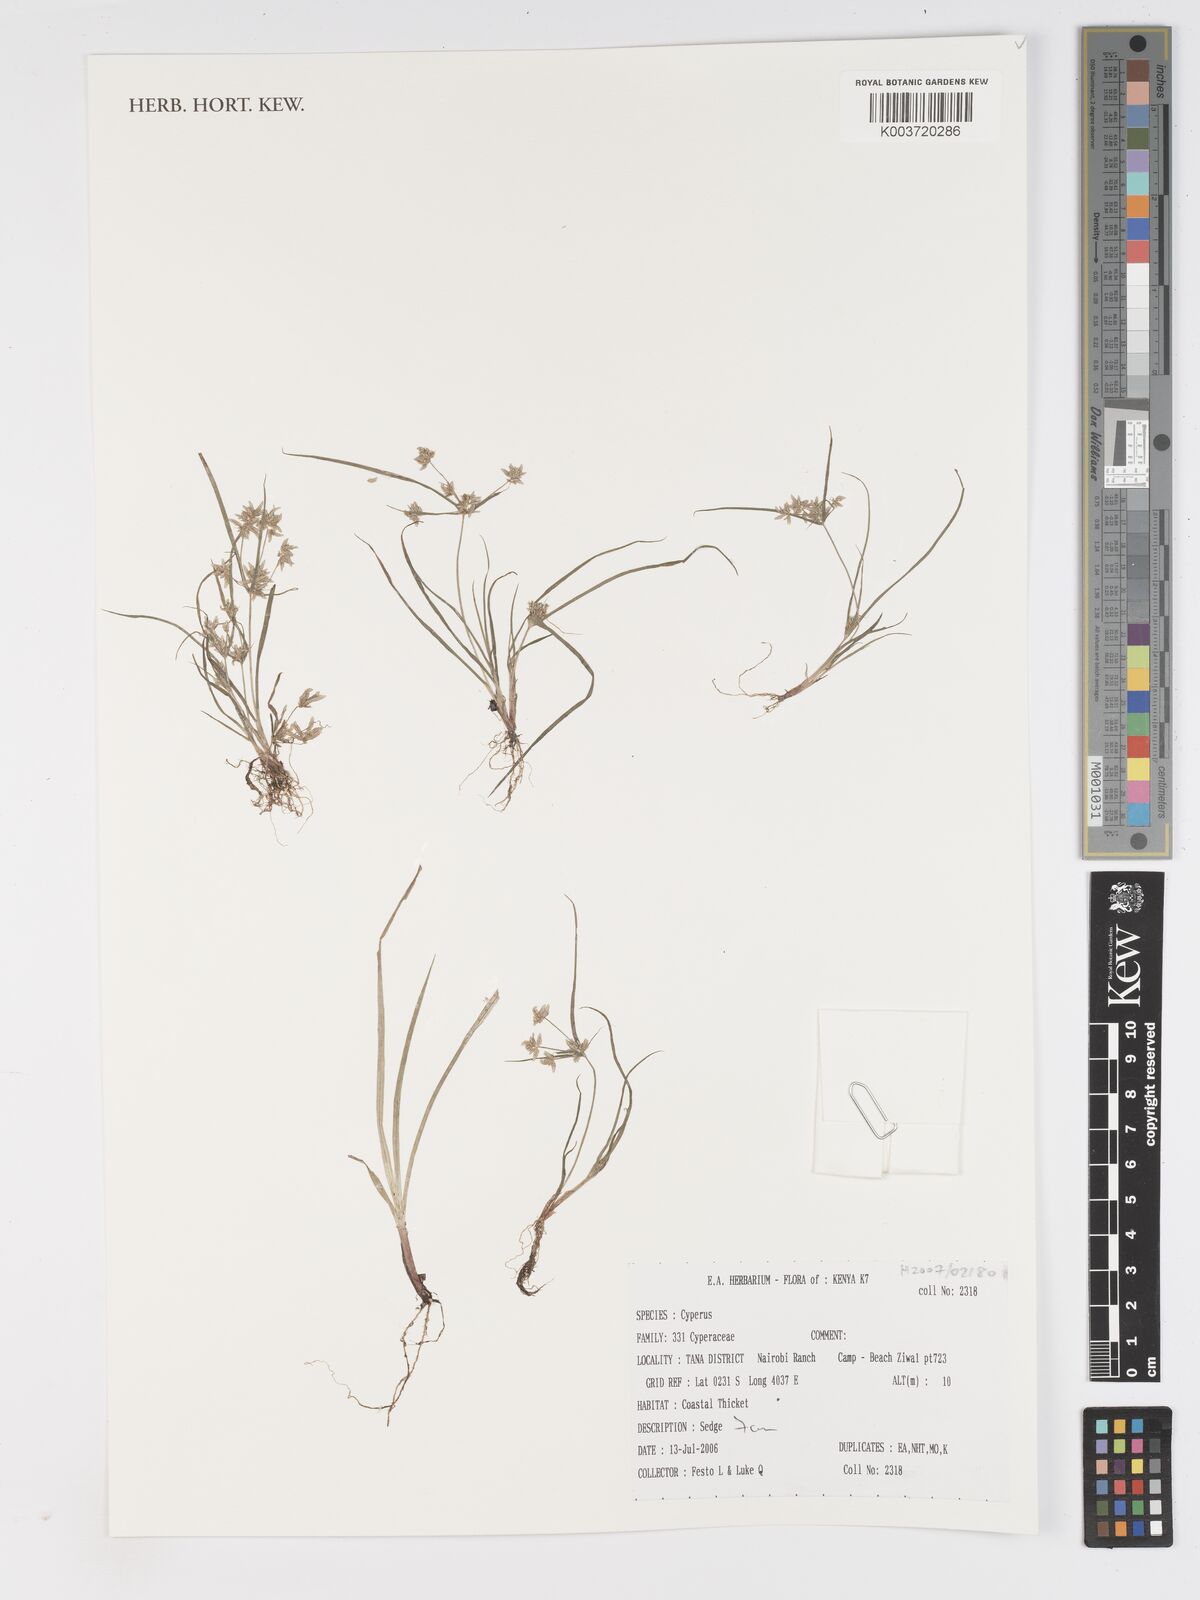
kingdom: Plantae
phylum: Tracheophyta
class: Liliopsida
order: Poales
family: Cyperaceae
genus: Cyperus
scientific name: Cyperus
